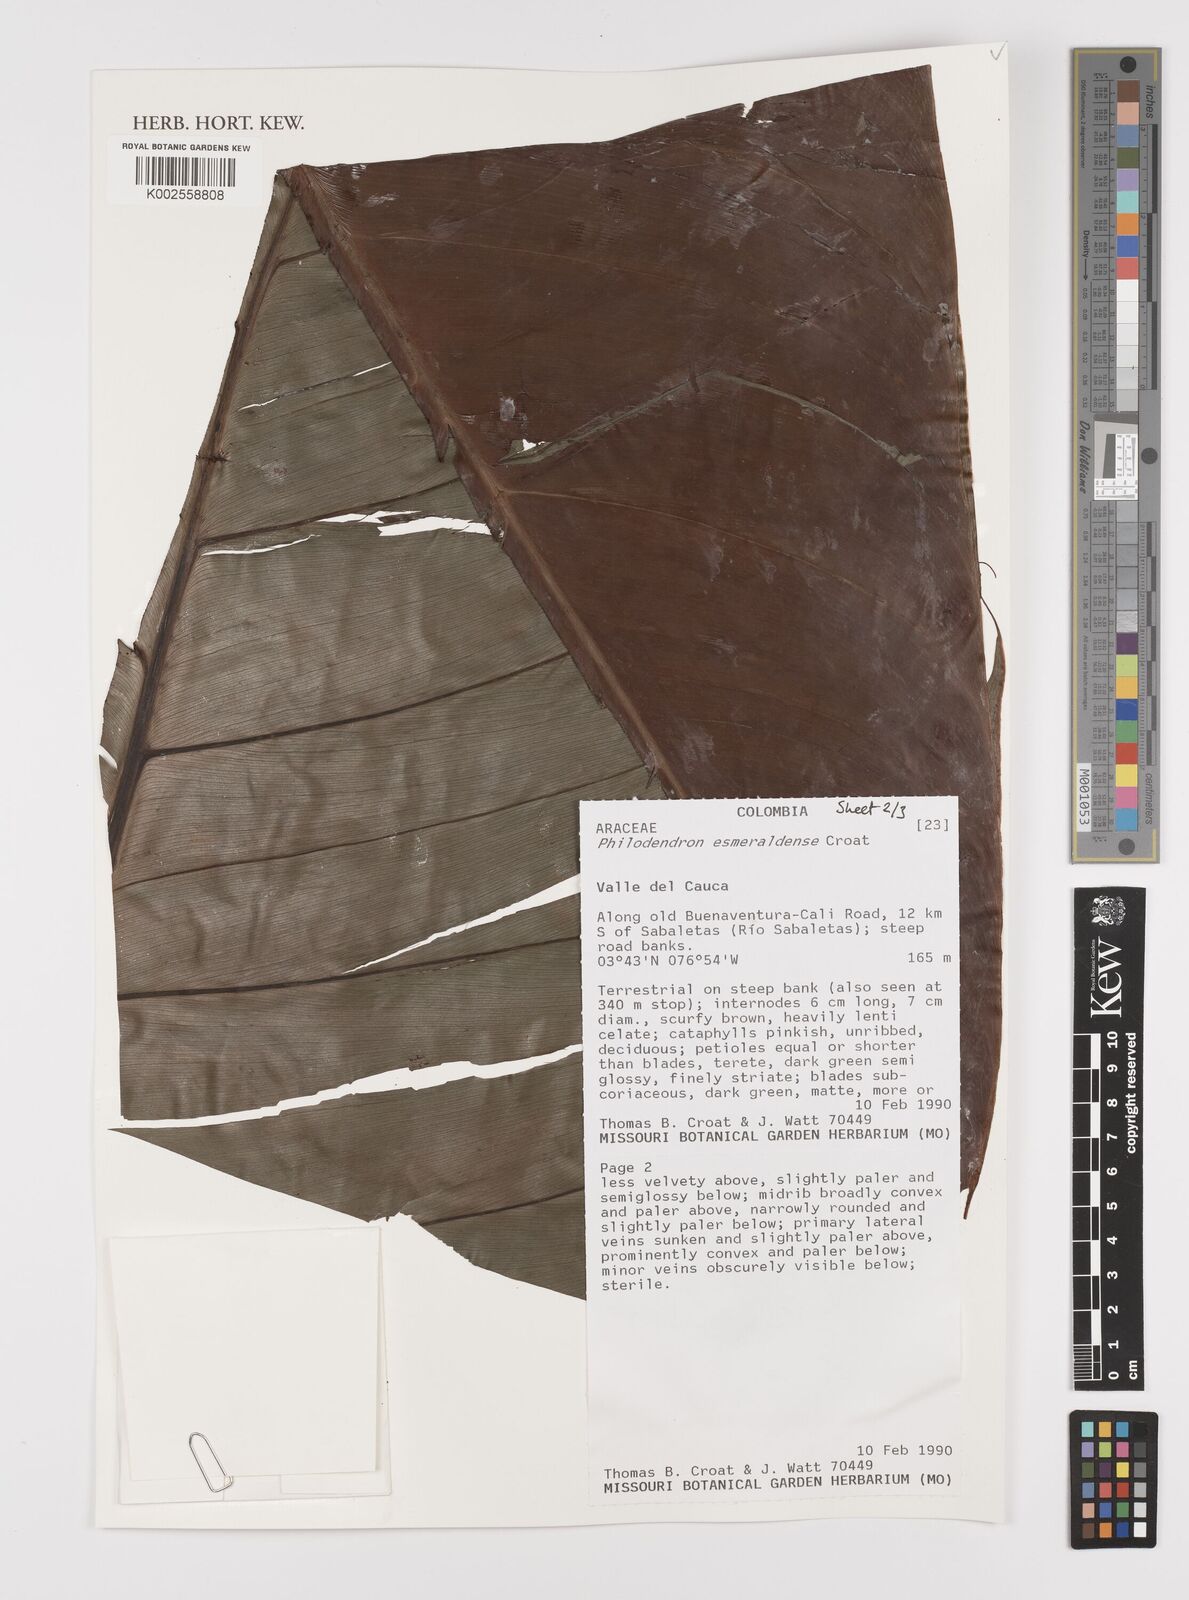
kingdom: Plantae
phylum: Tracheophyta
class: Liliopsida
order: Alismatales
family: Araceae
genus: Philodendron
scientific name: Philodendron esmeraldense
